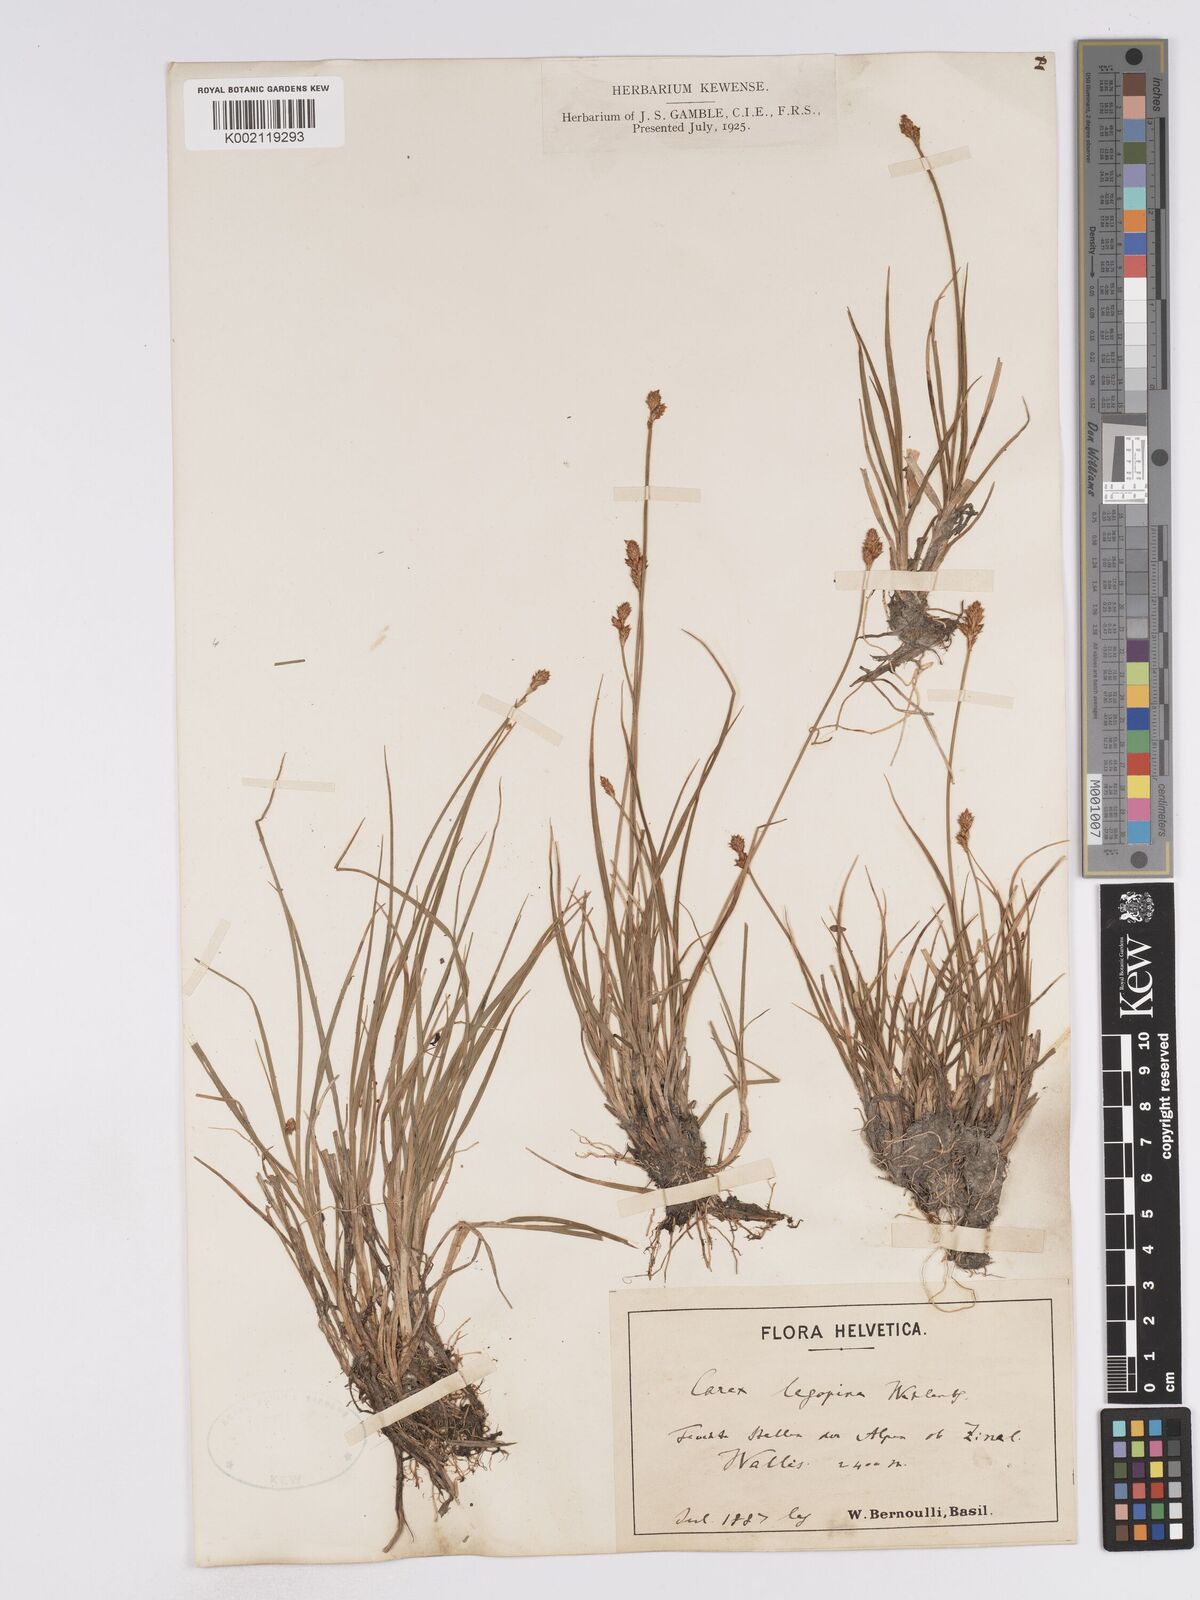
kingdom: Plantae
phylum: Tracheophyta
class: Liliopsida
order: Poales
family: Cyperaceae
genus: Carex
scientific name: Carex lachenalii
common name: Hare's-foot sedge
